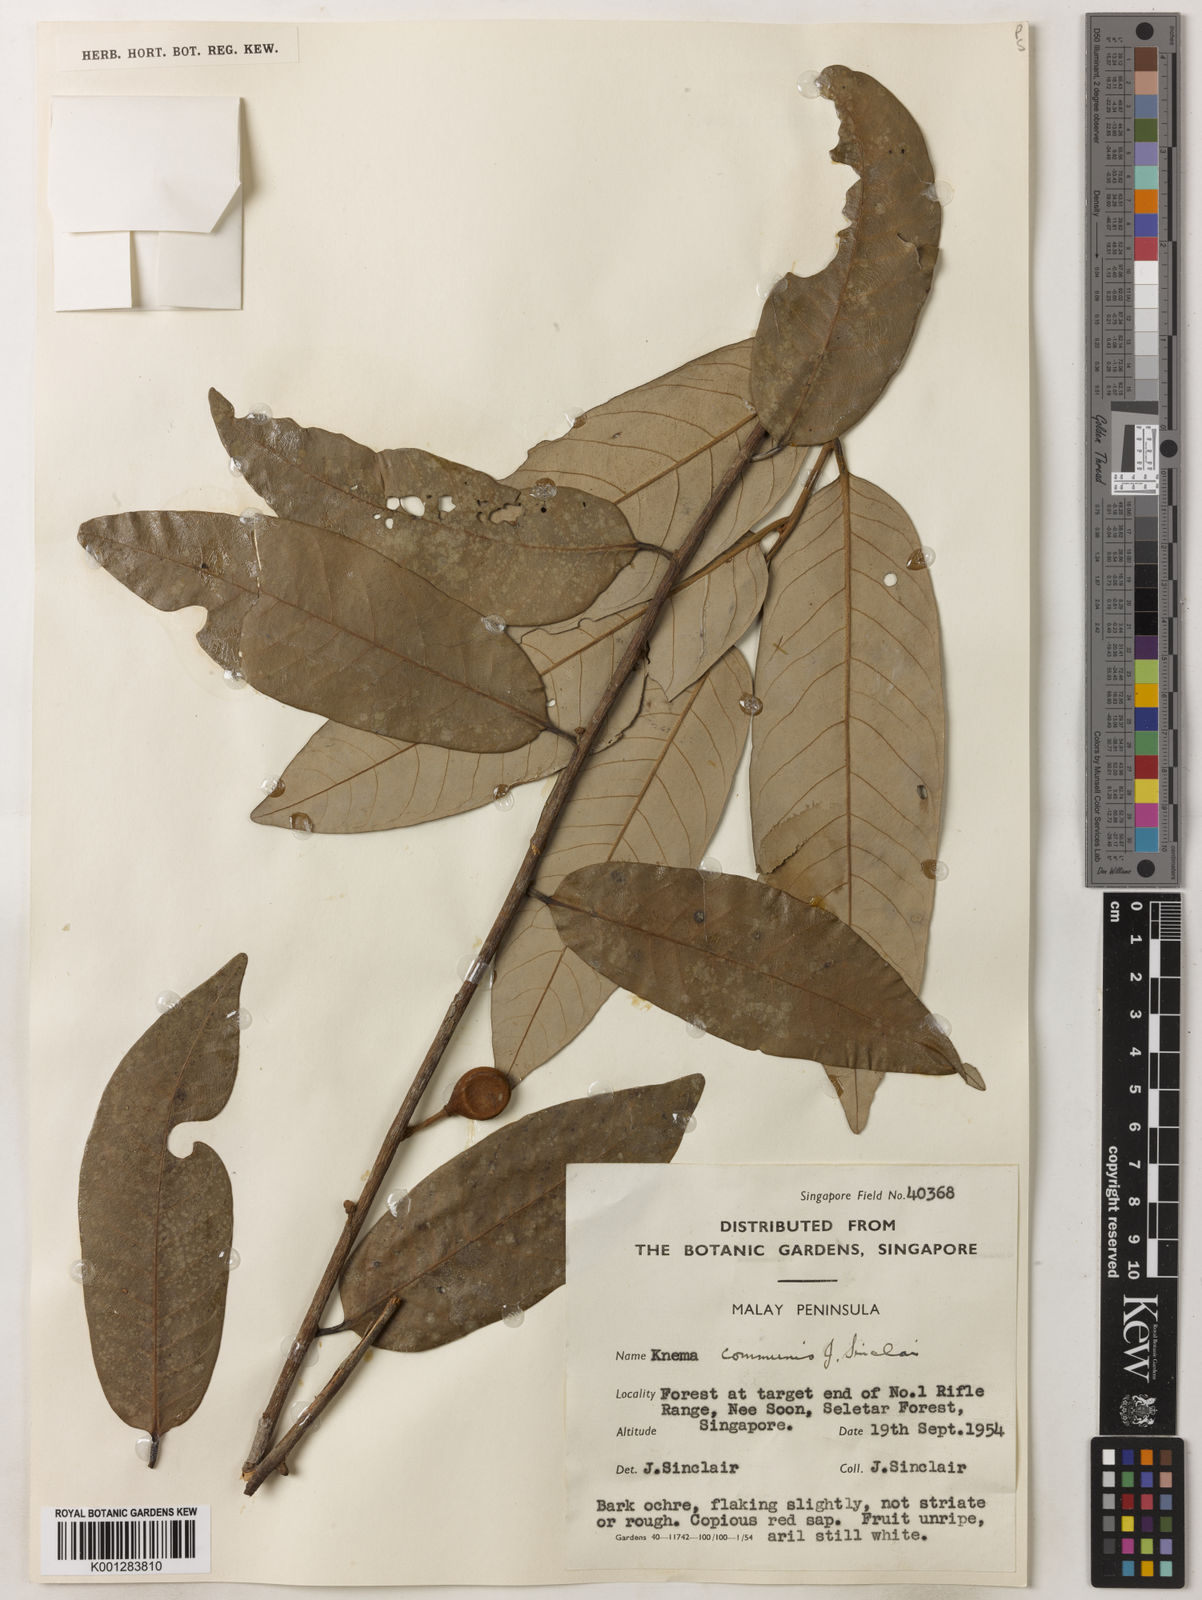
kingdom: Plantae
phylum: Tracheophyta
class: Magnoliopsida
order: Magnoliales
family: Myristicaceae
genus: Knema
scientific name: Knema communis
